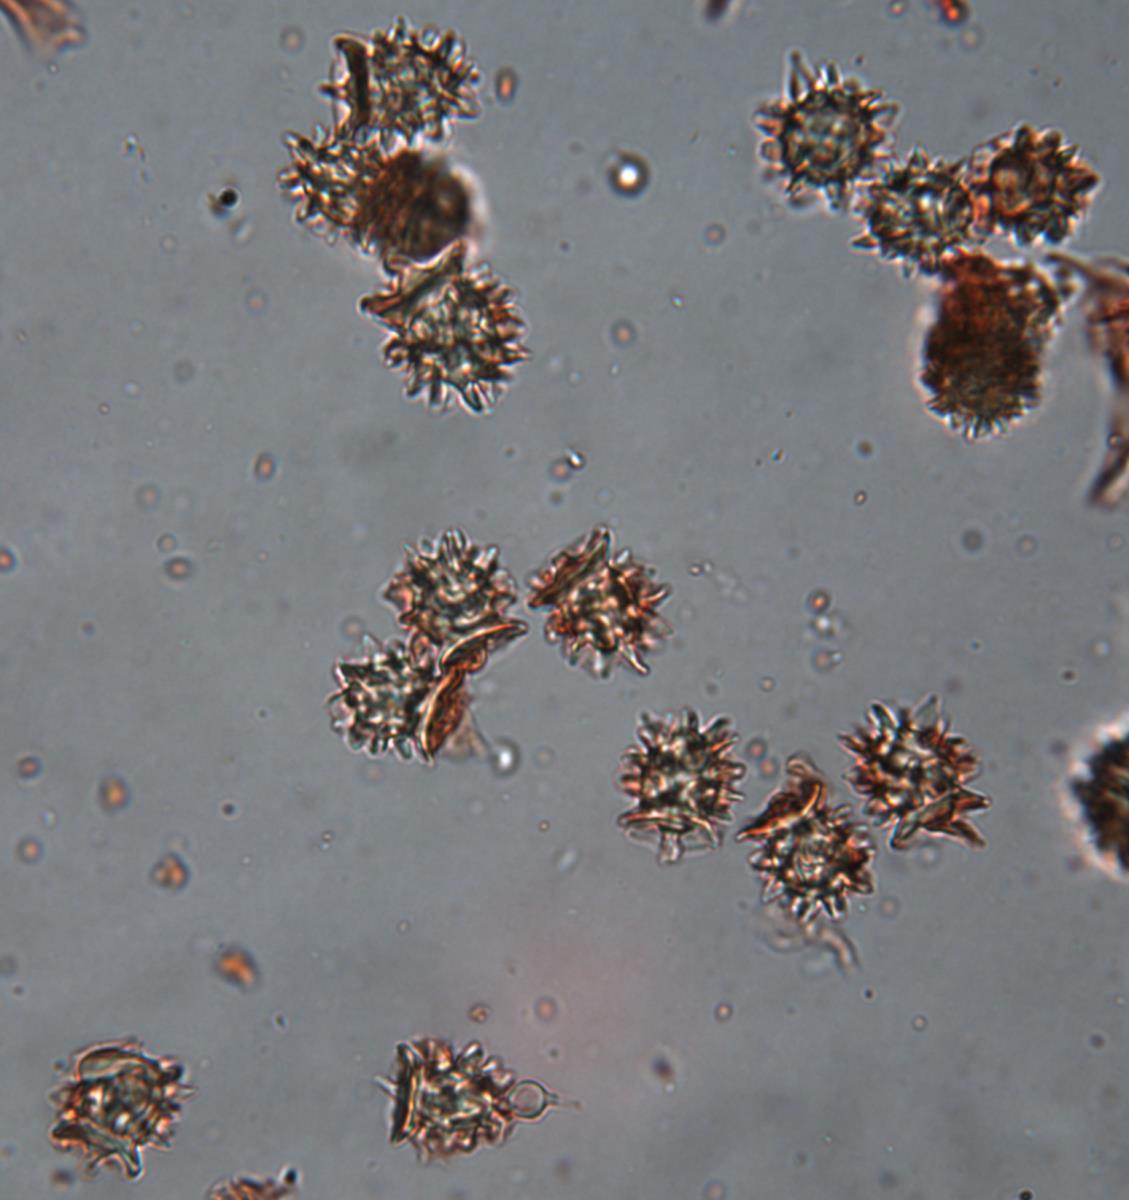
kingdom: Fungi
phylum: Basidiomycota
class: Agaricomycetes
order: Agaricales
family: Stephanosporaceae
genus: Stephanospora
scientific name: Stephanospora aorangi
